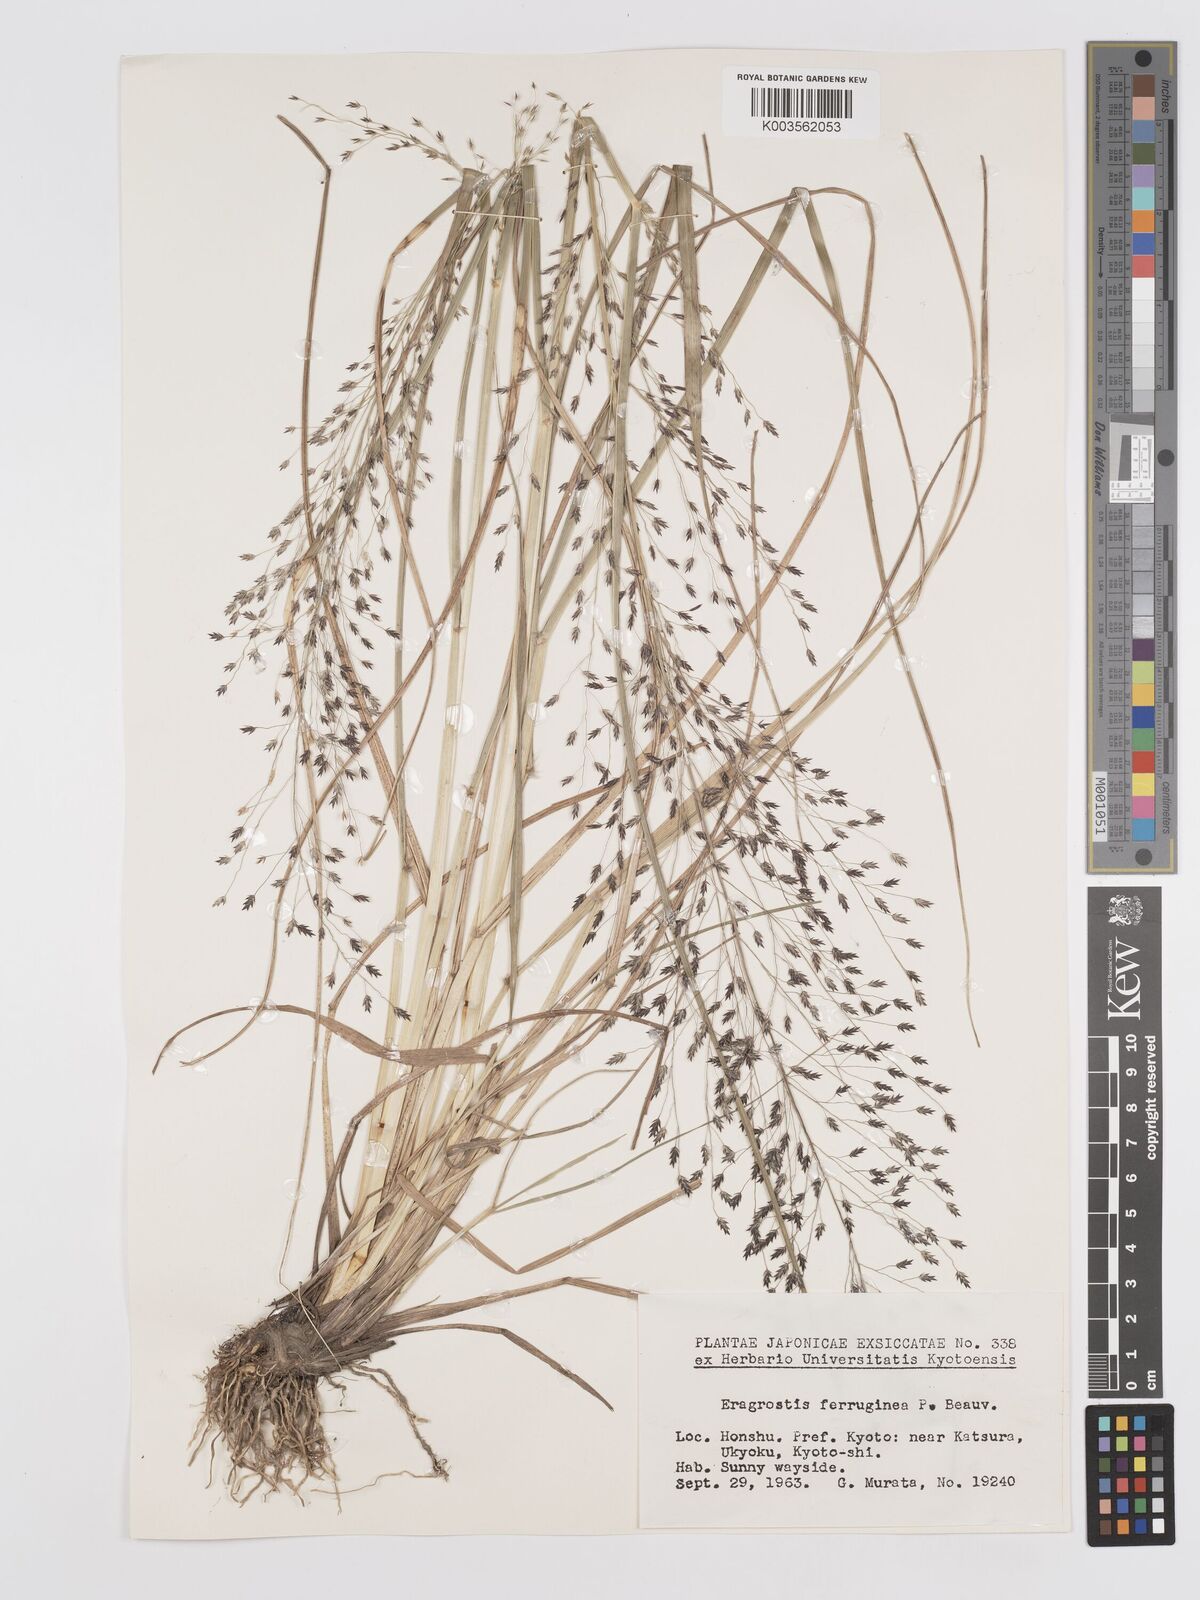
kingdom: Plantae
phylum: Tracheophyta
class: Liliopsida
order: Poales
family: Poaceae
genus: Eragrostis
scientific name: Eragrostis ferruginea
